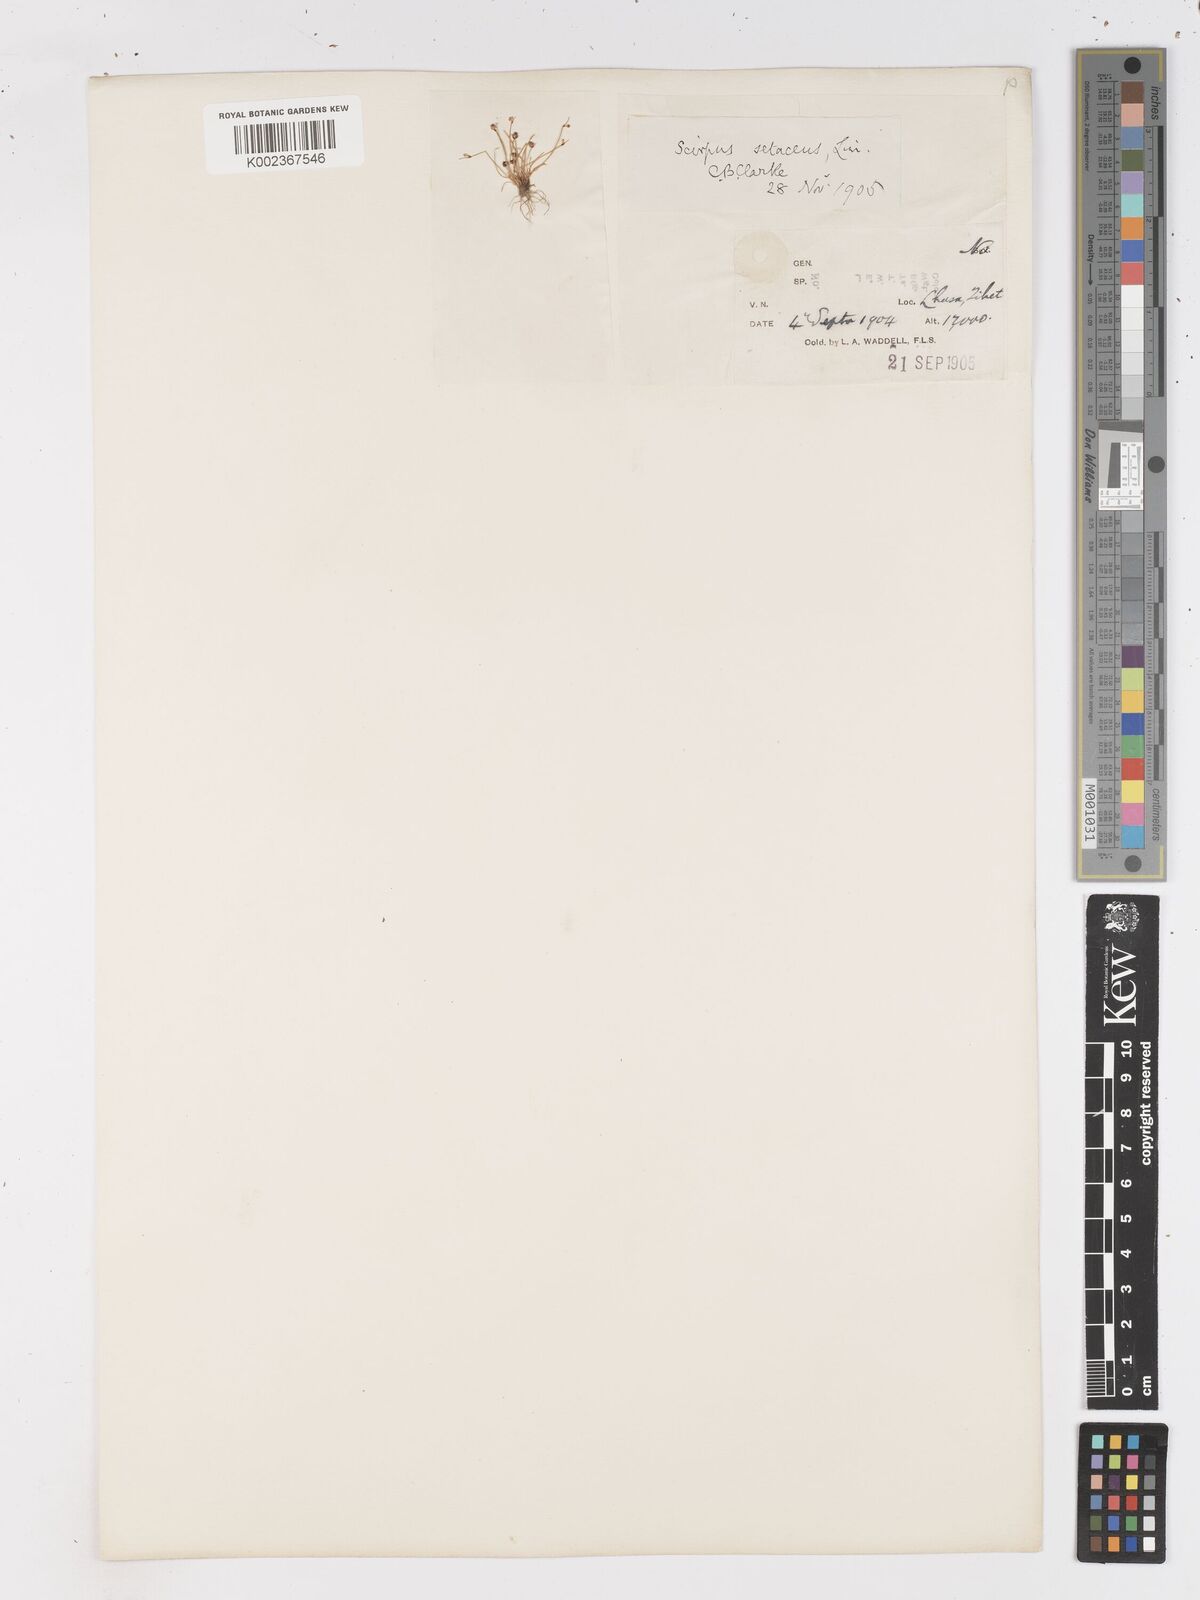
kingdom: Plantae
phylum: Tracheophyta
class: Liliopsida
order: Poales
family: Cyperaceae
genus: Isolepis
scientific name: Isolepis setacea
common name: Bristle club-rush
